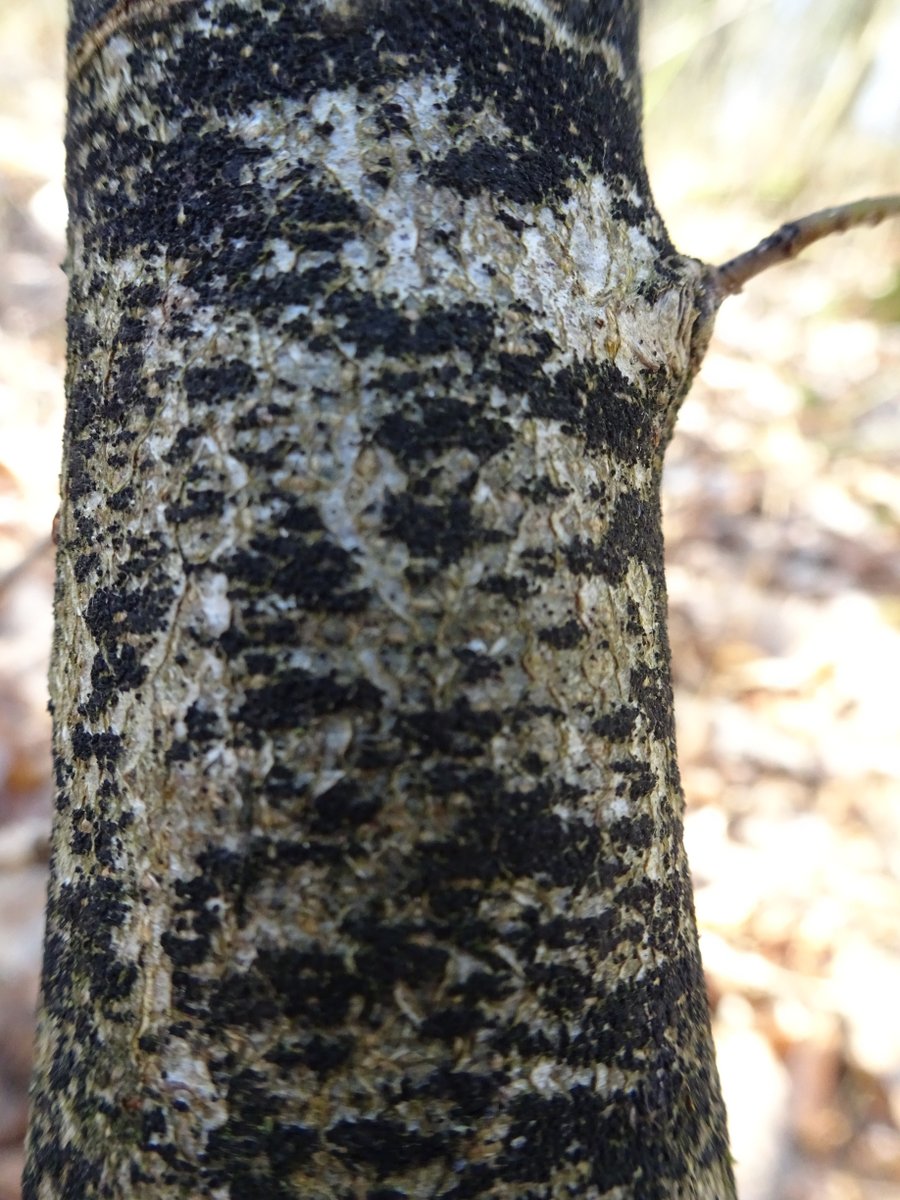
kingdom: Fungi
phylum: Ascomycota
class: Leotiomycetes
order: Rhytismatales
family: Ascodichaenaceae
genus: Ascodichaena
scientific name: Ascodichaena rugosa
